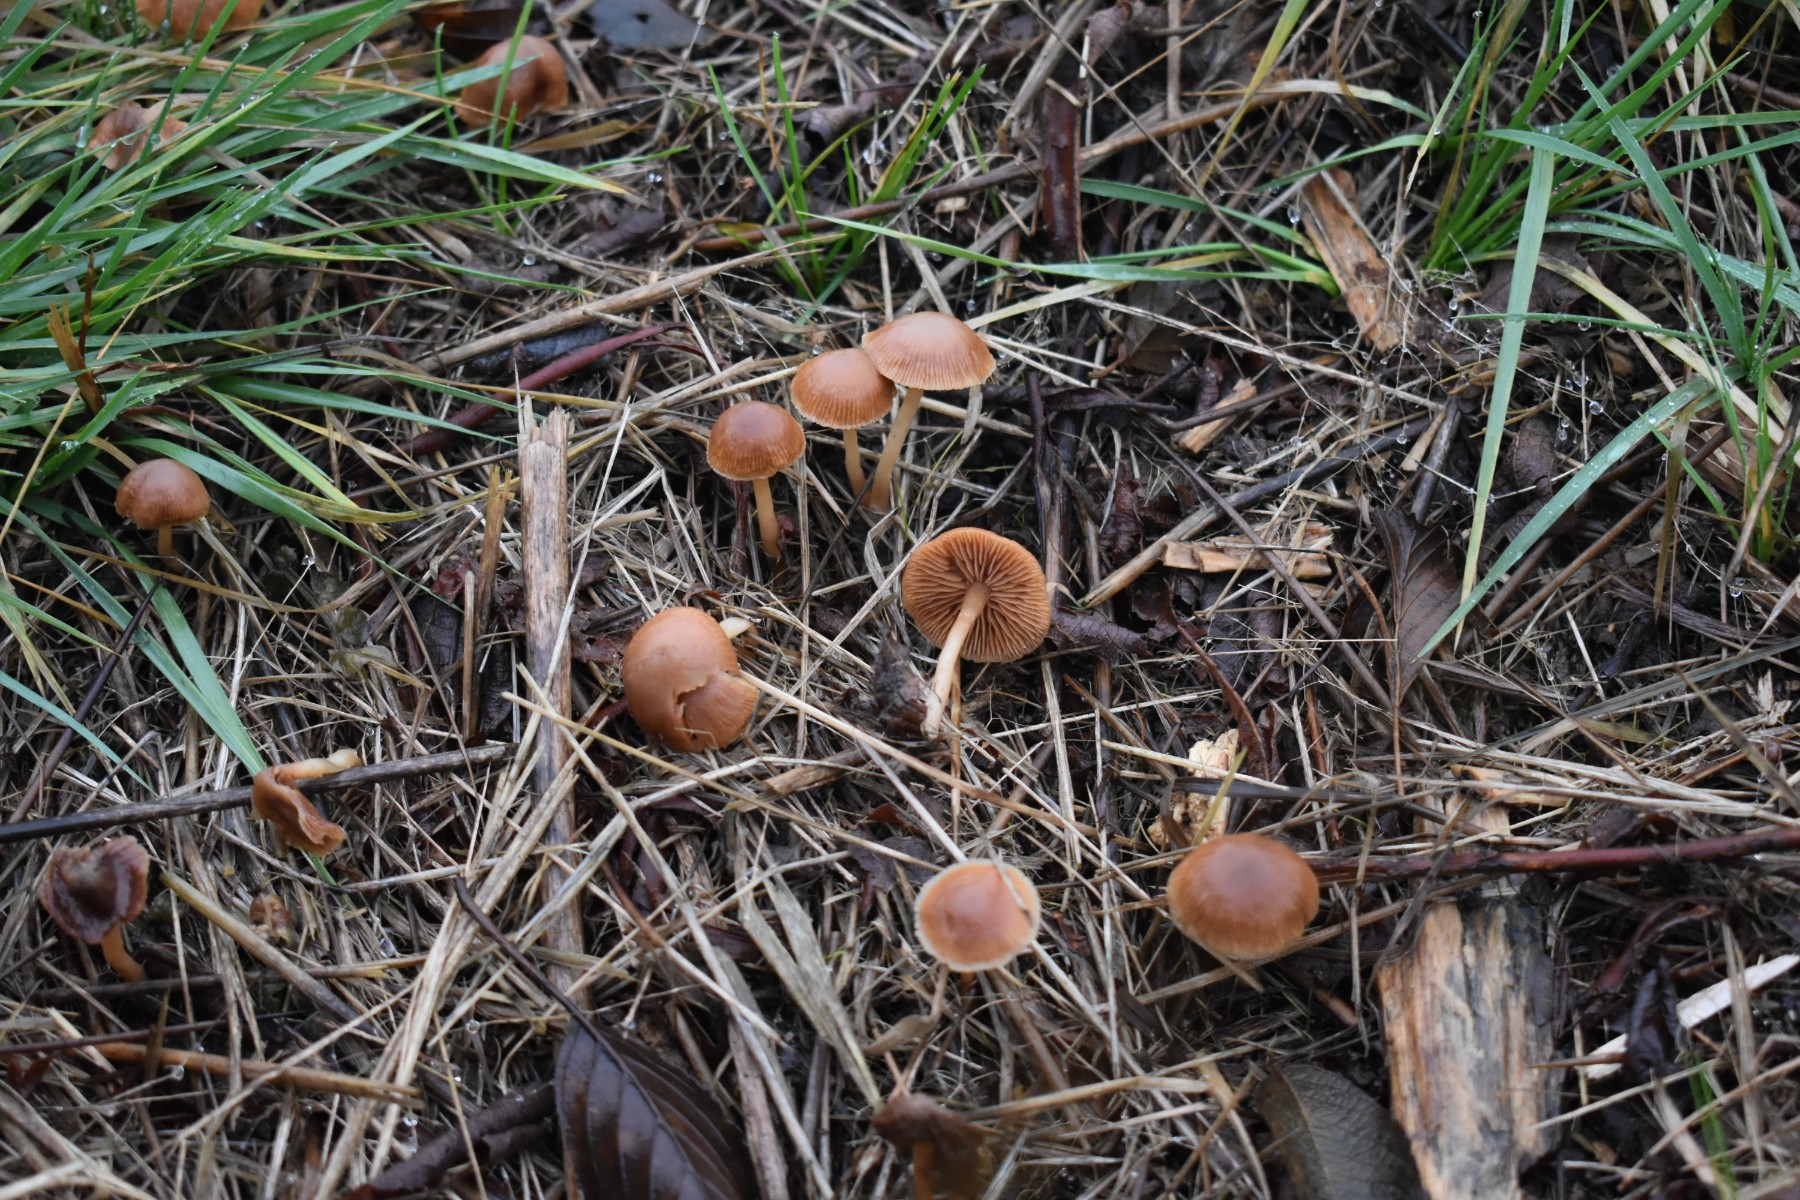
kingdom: Fungi
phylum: Basidiomycota
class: Agaricomycetes
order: Agaricales
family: Tubariaceae
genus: Tubaria
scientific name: Tubaria furfuracea
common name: kliddet fnughat
